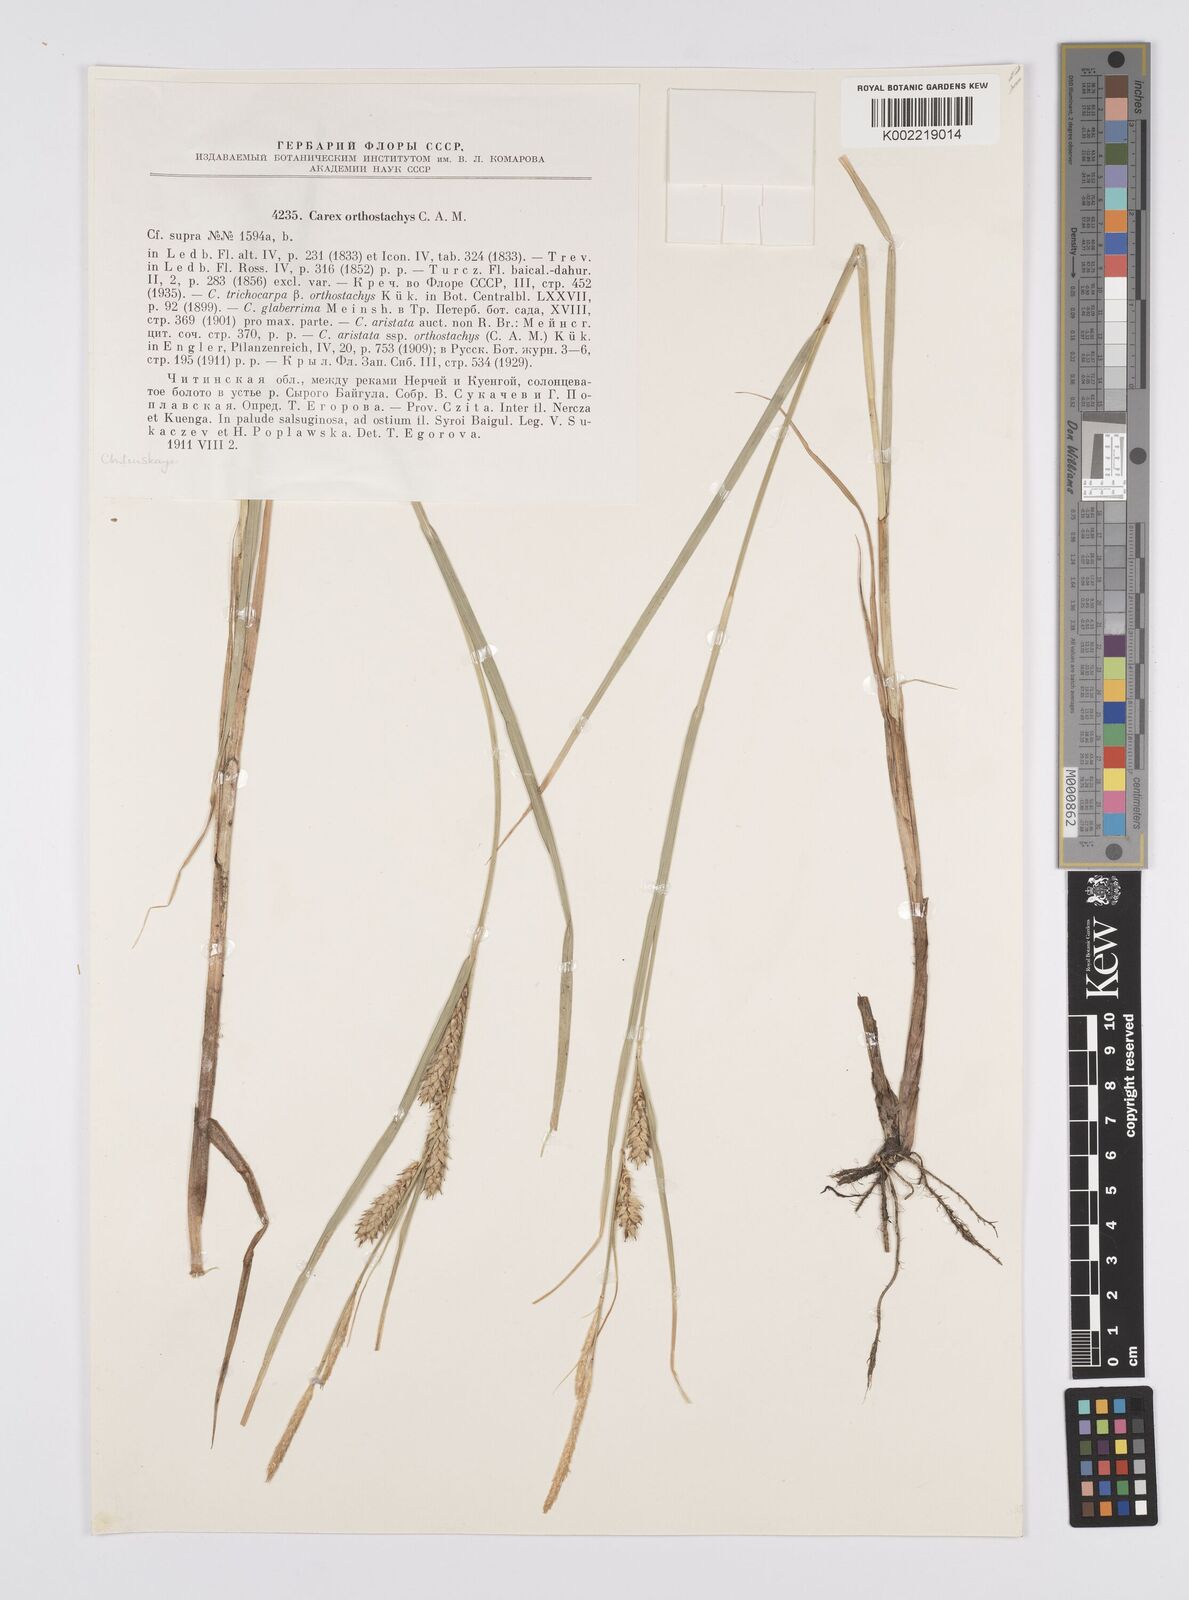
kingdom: Plantae
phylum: Tracheophyta
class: Liliopsida
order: Poales
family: Cyperaceae
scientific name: Cyperaceae
